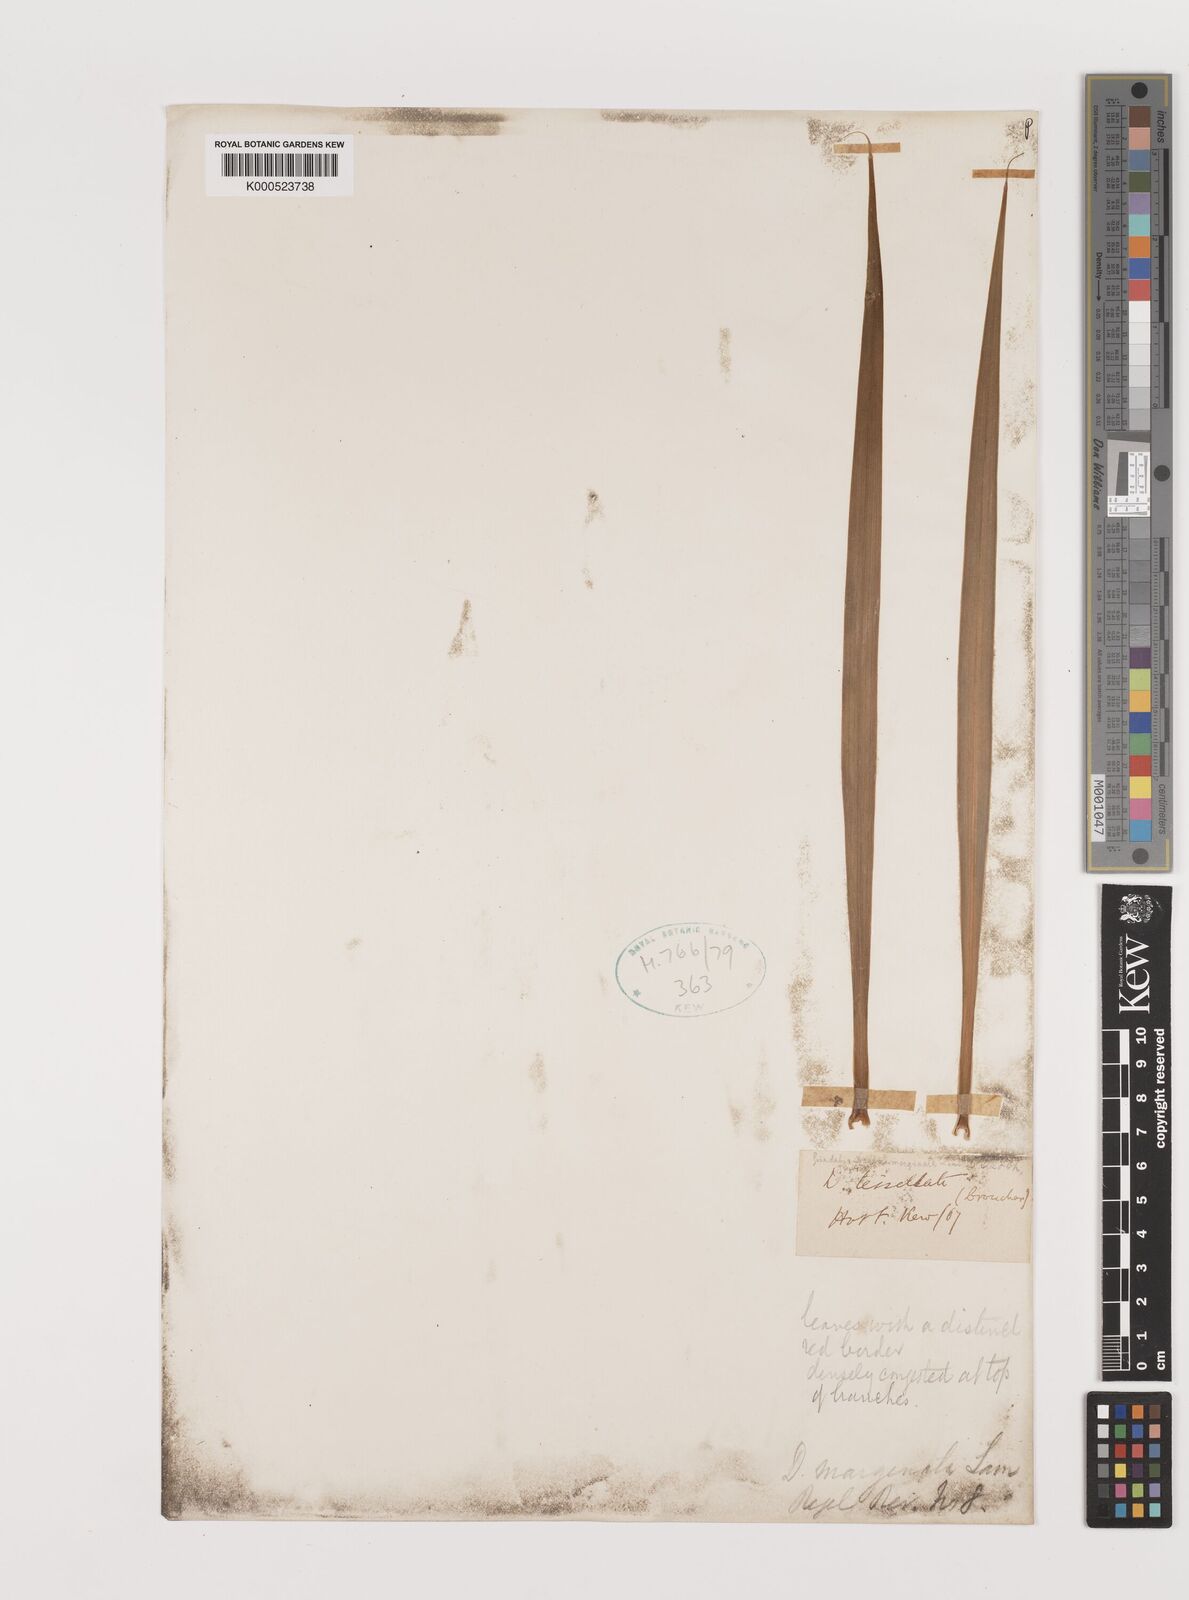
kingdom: Plantae
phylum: Tracheophyta
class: Liliopsida
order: Asparagales
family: Asparagaceae
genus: Dracaena
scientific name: Dracaena
